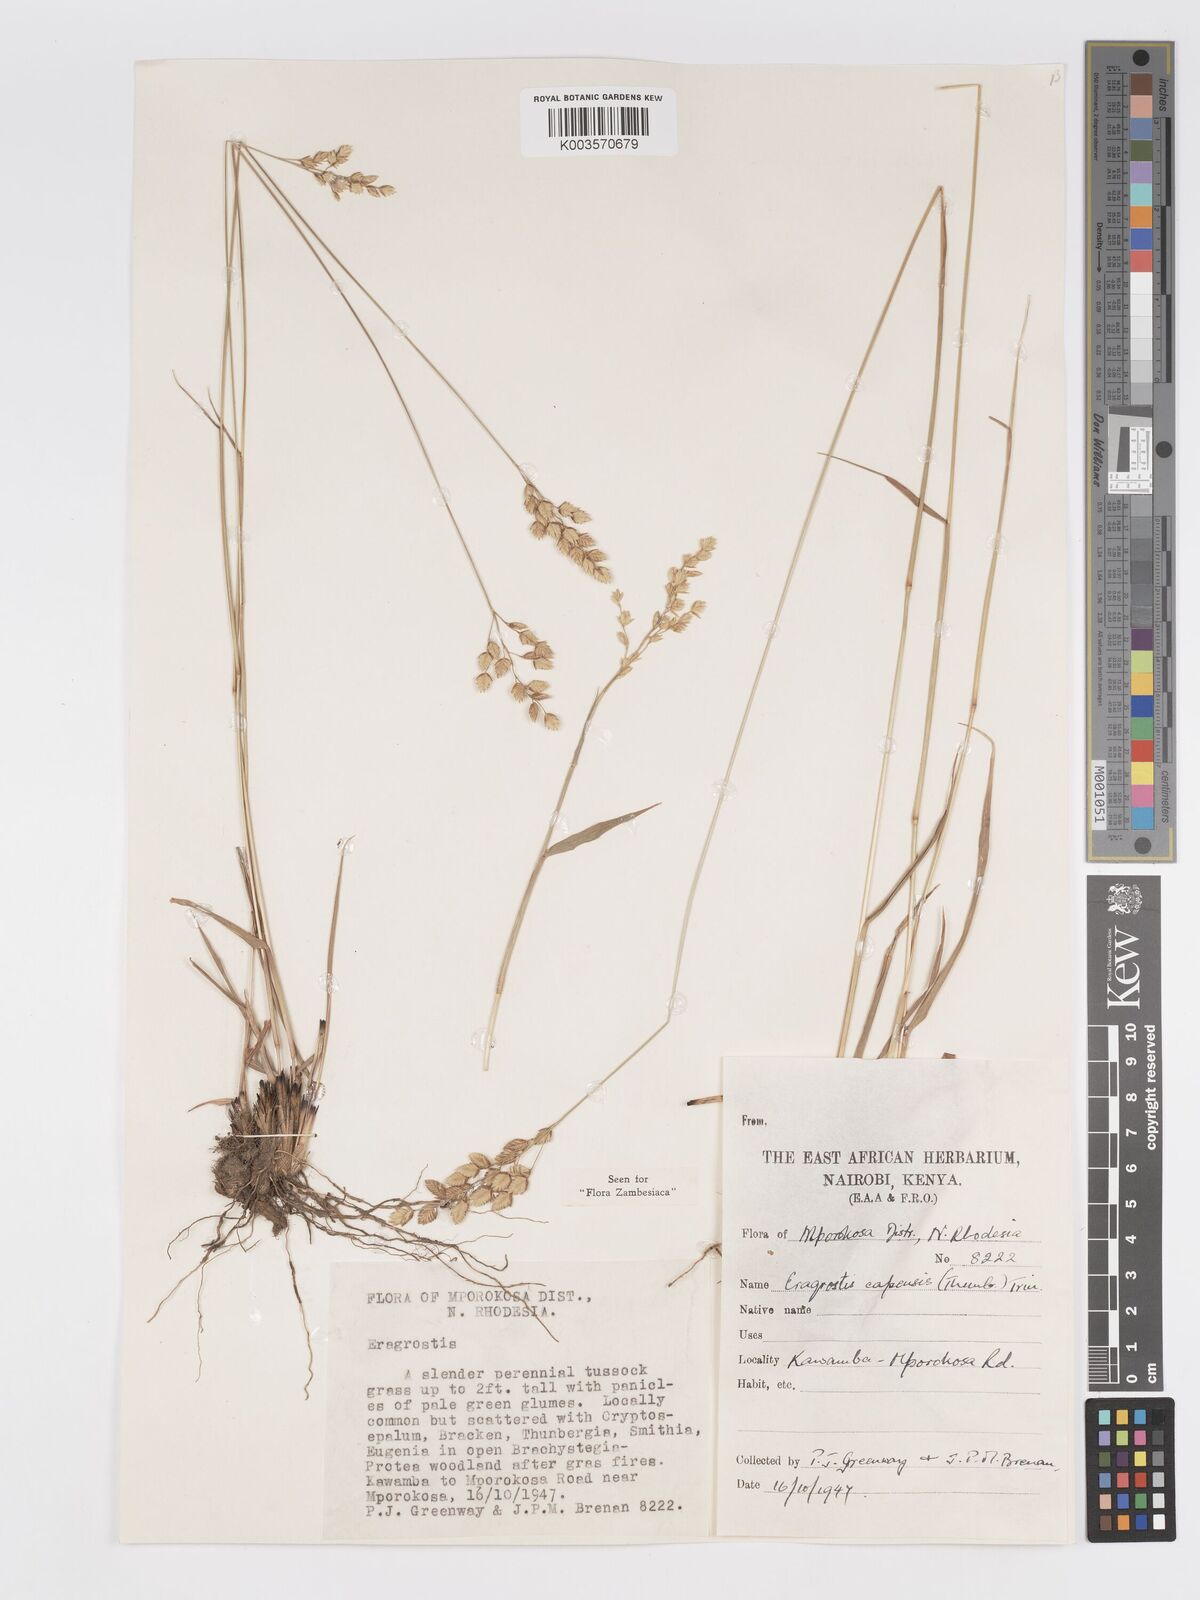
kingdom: Plantae
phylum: Tracheophyta
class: Liliopsida
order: Poales
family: Poaceae
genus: Eragrostis
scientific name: Eragrostis capensis
